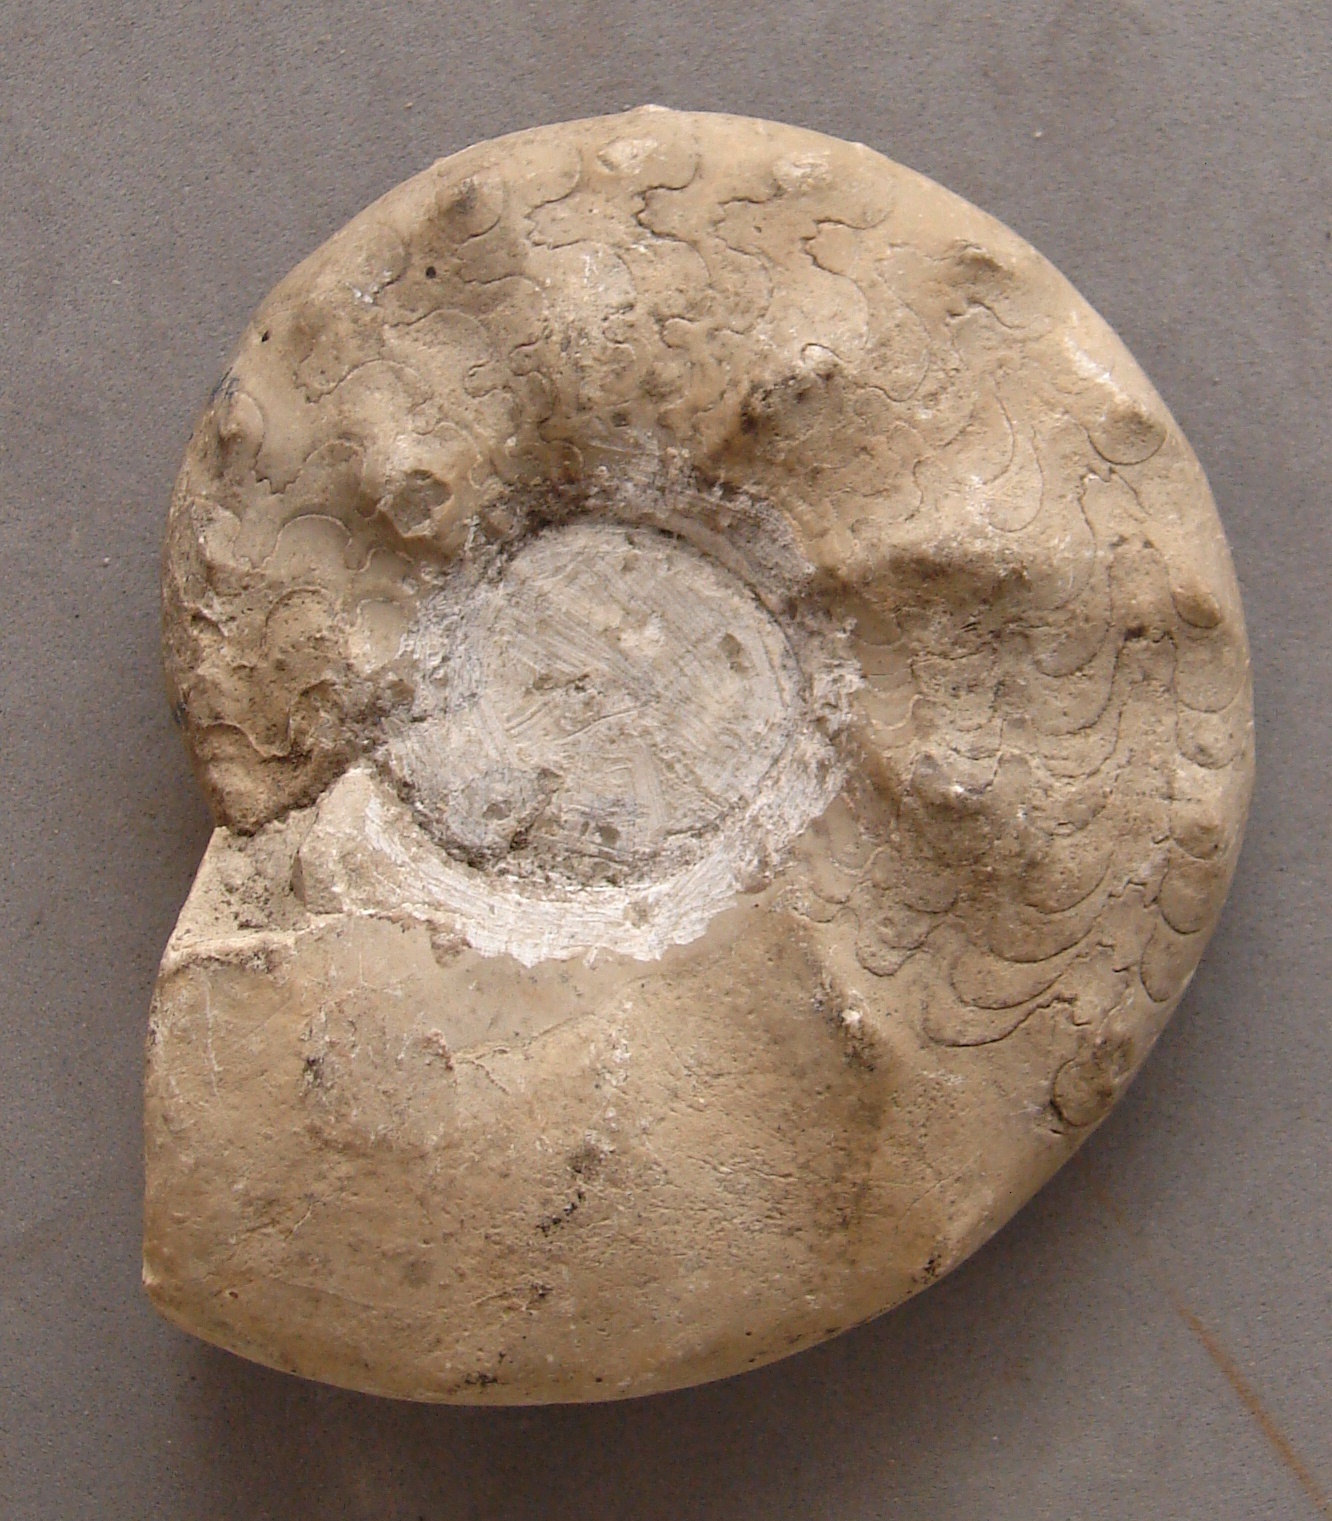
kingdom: Animalia
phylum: Mollusca
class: Cephalopoda
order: Ceratitida
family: Ceratitidae
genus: Ceratites
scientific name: Ceratites nodosus
